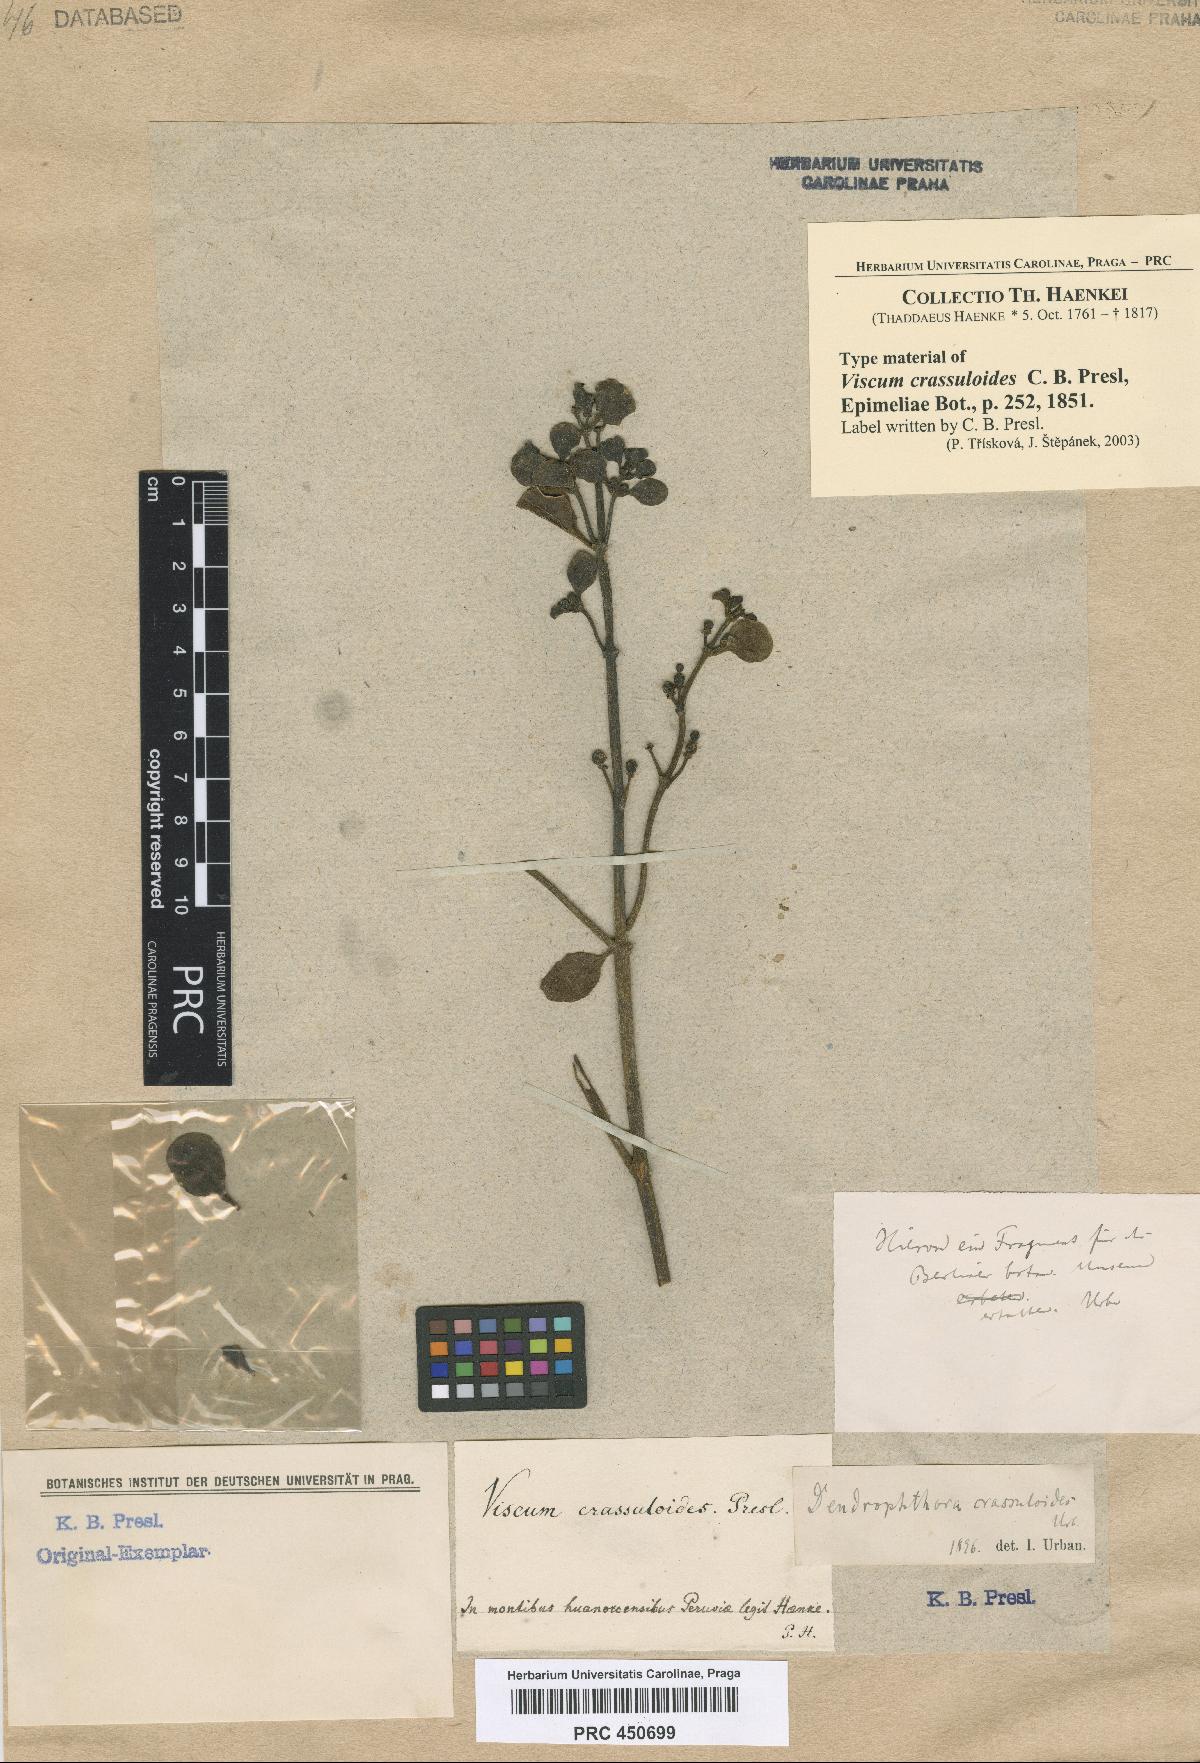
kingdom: Plantae
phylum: Tracheophyta
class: Magnoliopsida
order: Santalales
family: Viscaceae
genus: Dendrophthora
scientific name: Dendrophthora clavata
